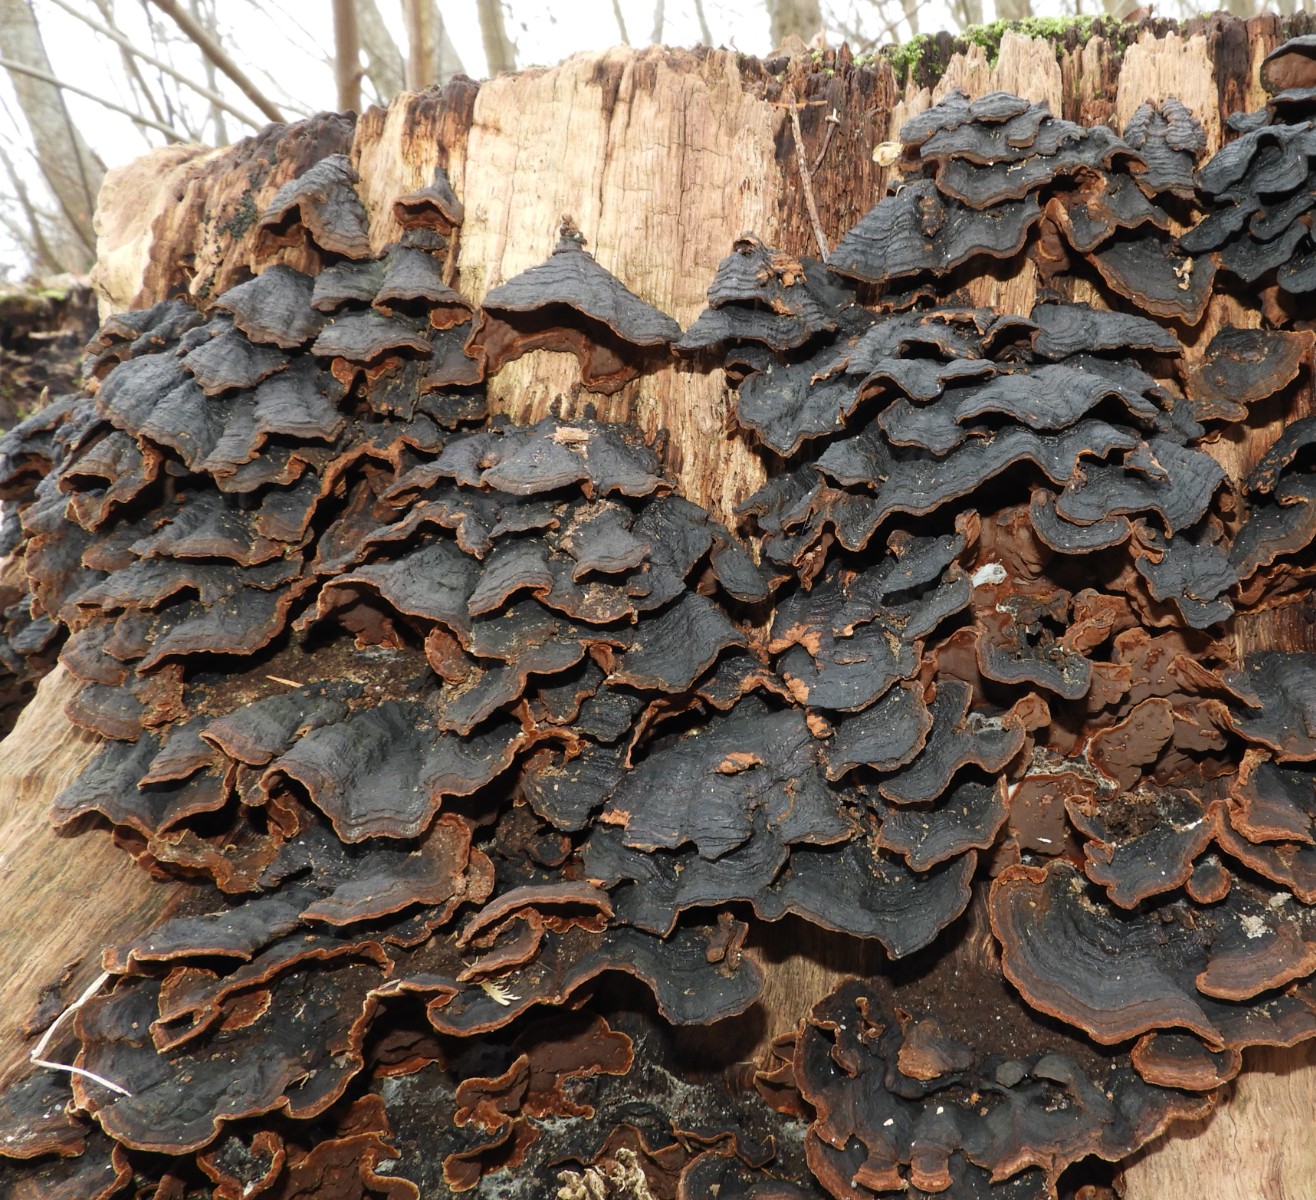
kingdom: Fungi
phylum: Basidiomycota
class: Agaricomycetes
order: Hymenochaetales
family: Hymenochaetaceae
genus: Hymenochaete
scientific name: Hymenochaete rubiginosa
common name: stiv ruslædersvamp
